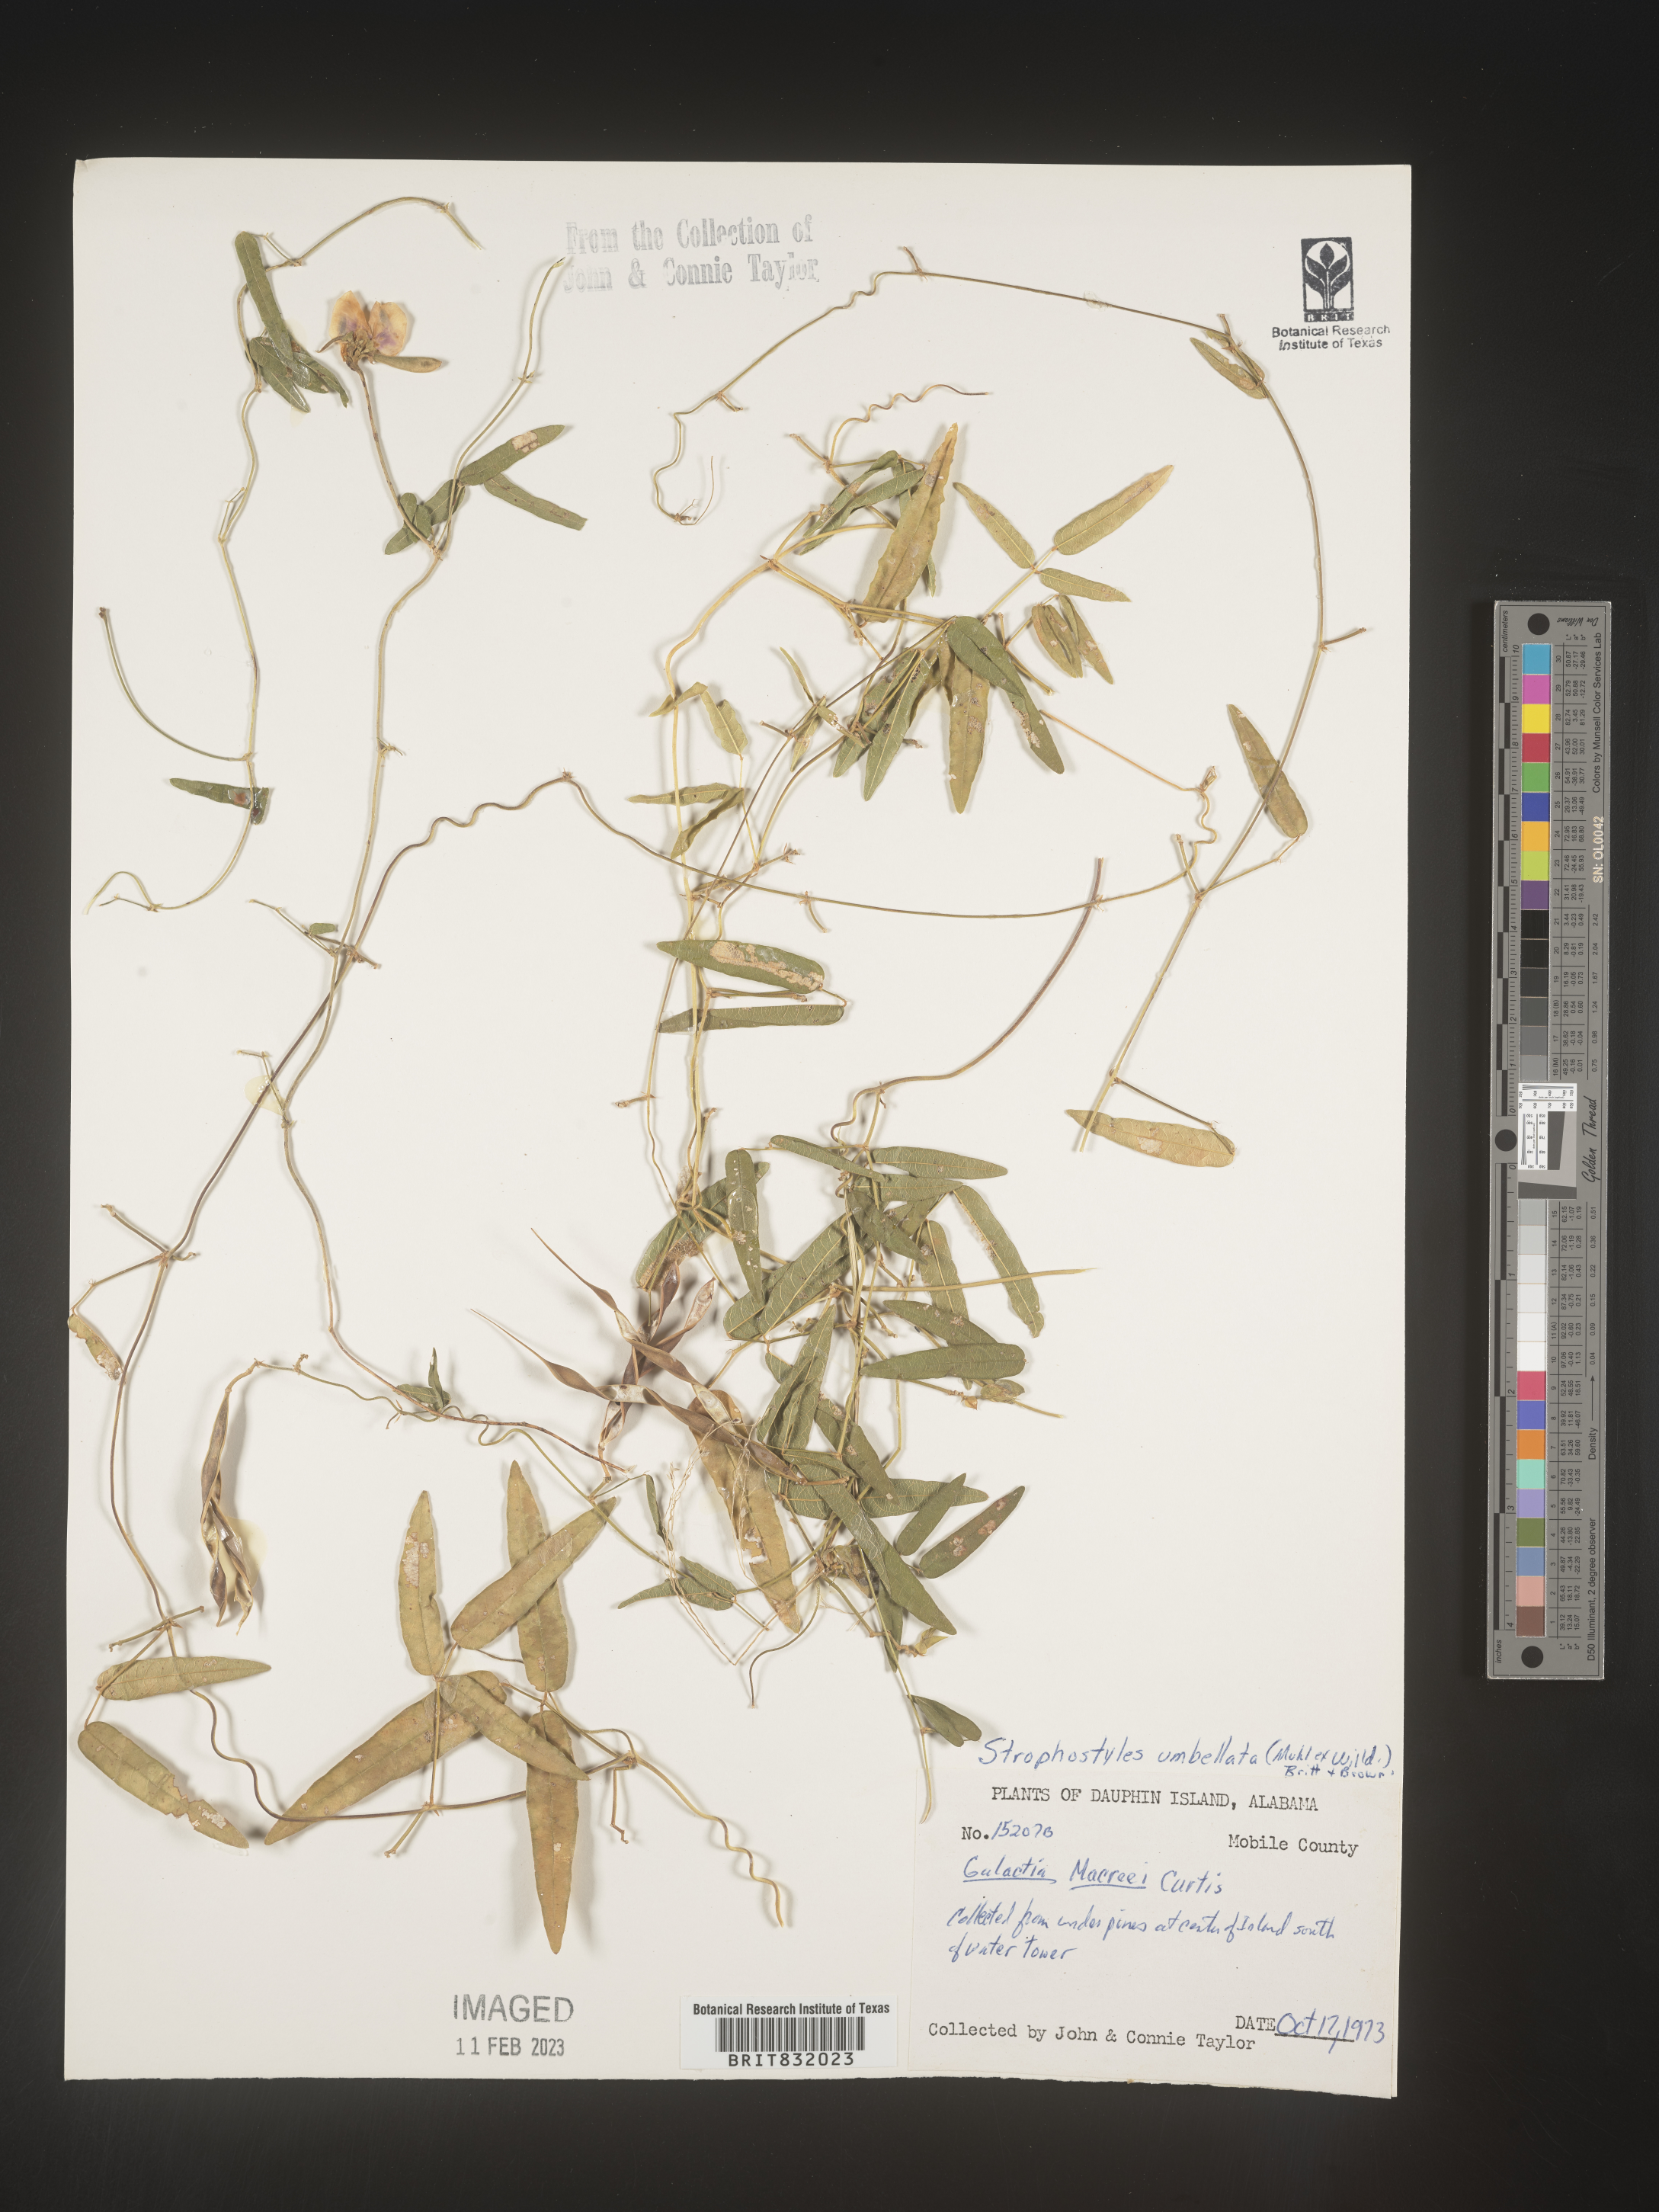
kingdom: Plantae
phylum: Tracheophyta
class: Magnoliopsida
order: Fabales
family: Fabaceae
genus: Strophostyles
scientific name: Strophostyles umbellata
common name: Perennial wild bean
